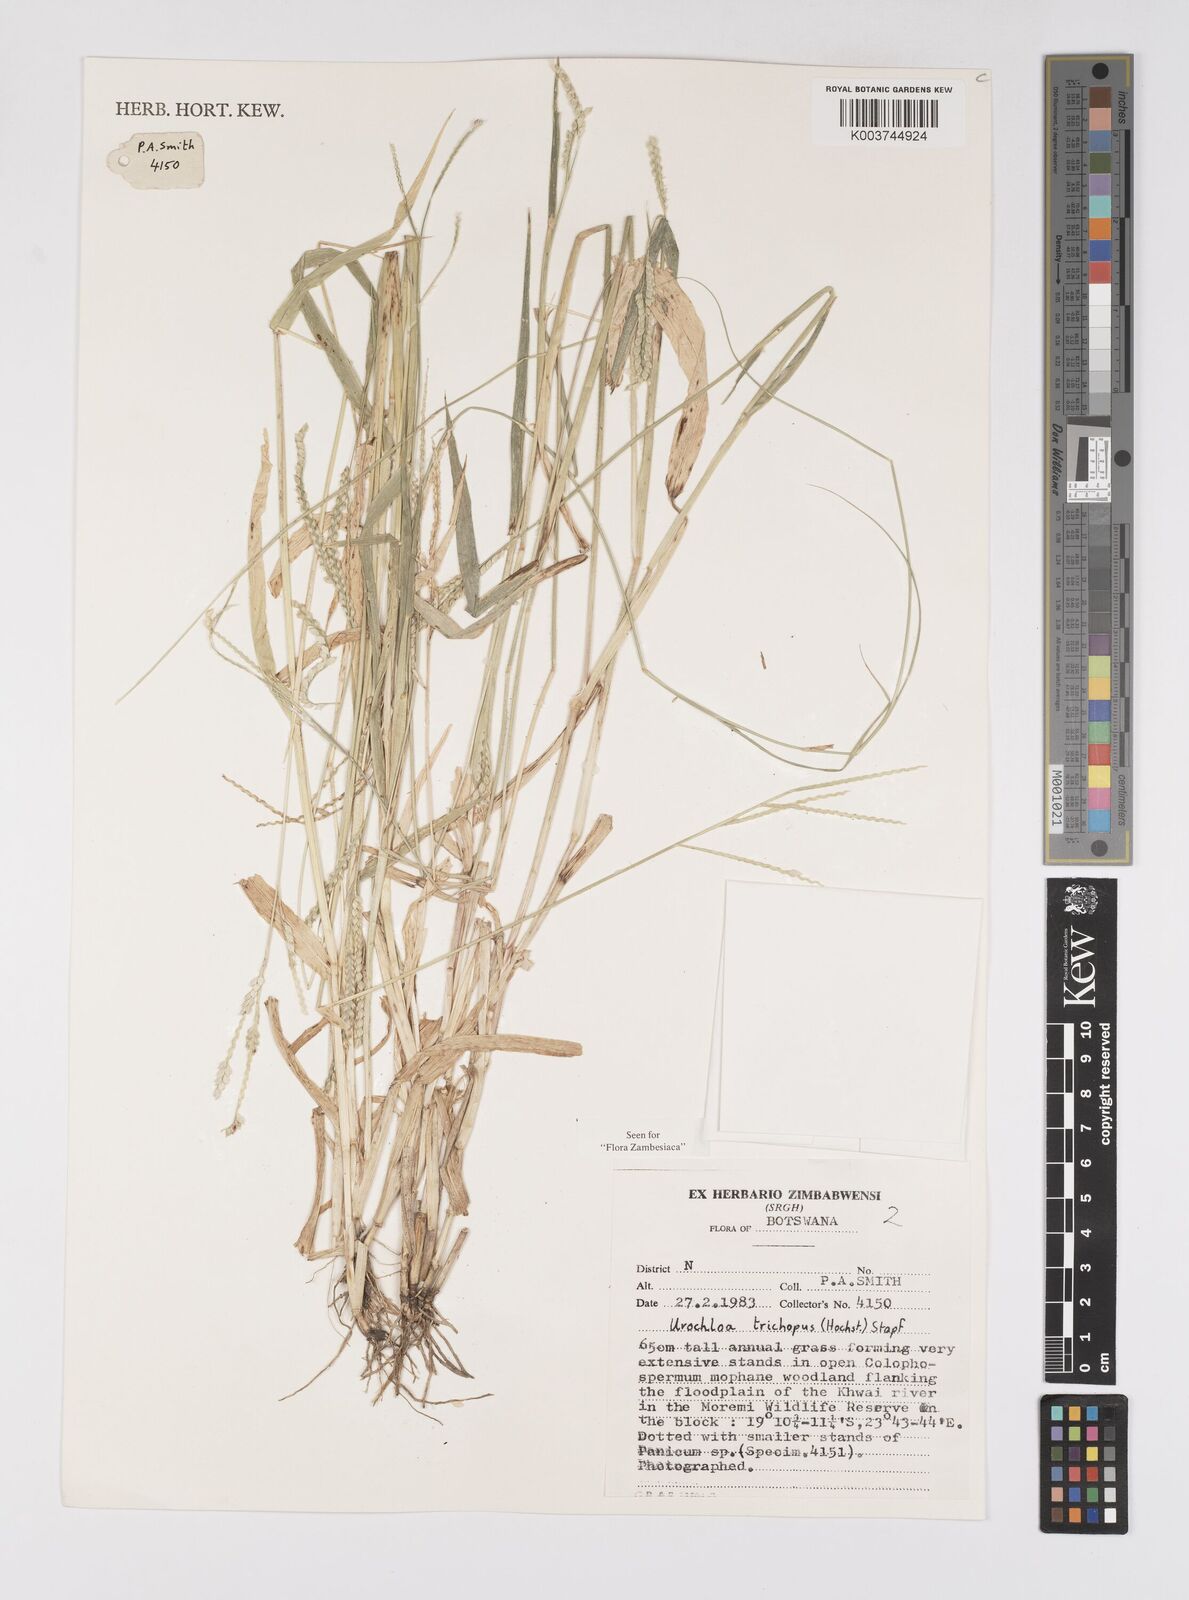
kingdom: Plantae
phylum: Tracheophyta
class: Liliopsida
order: Poales
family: Poaceae
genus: Urochloa
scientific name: Urochloa trichopus
